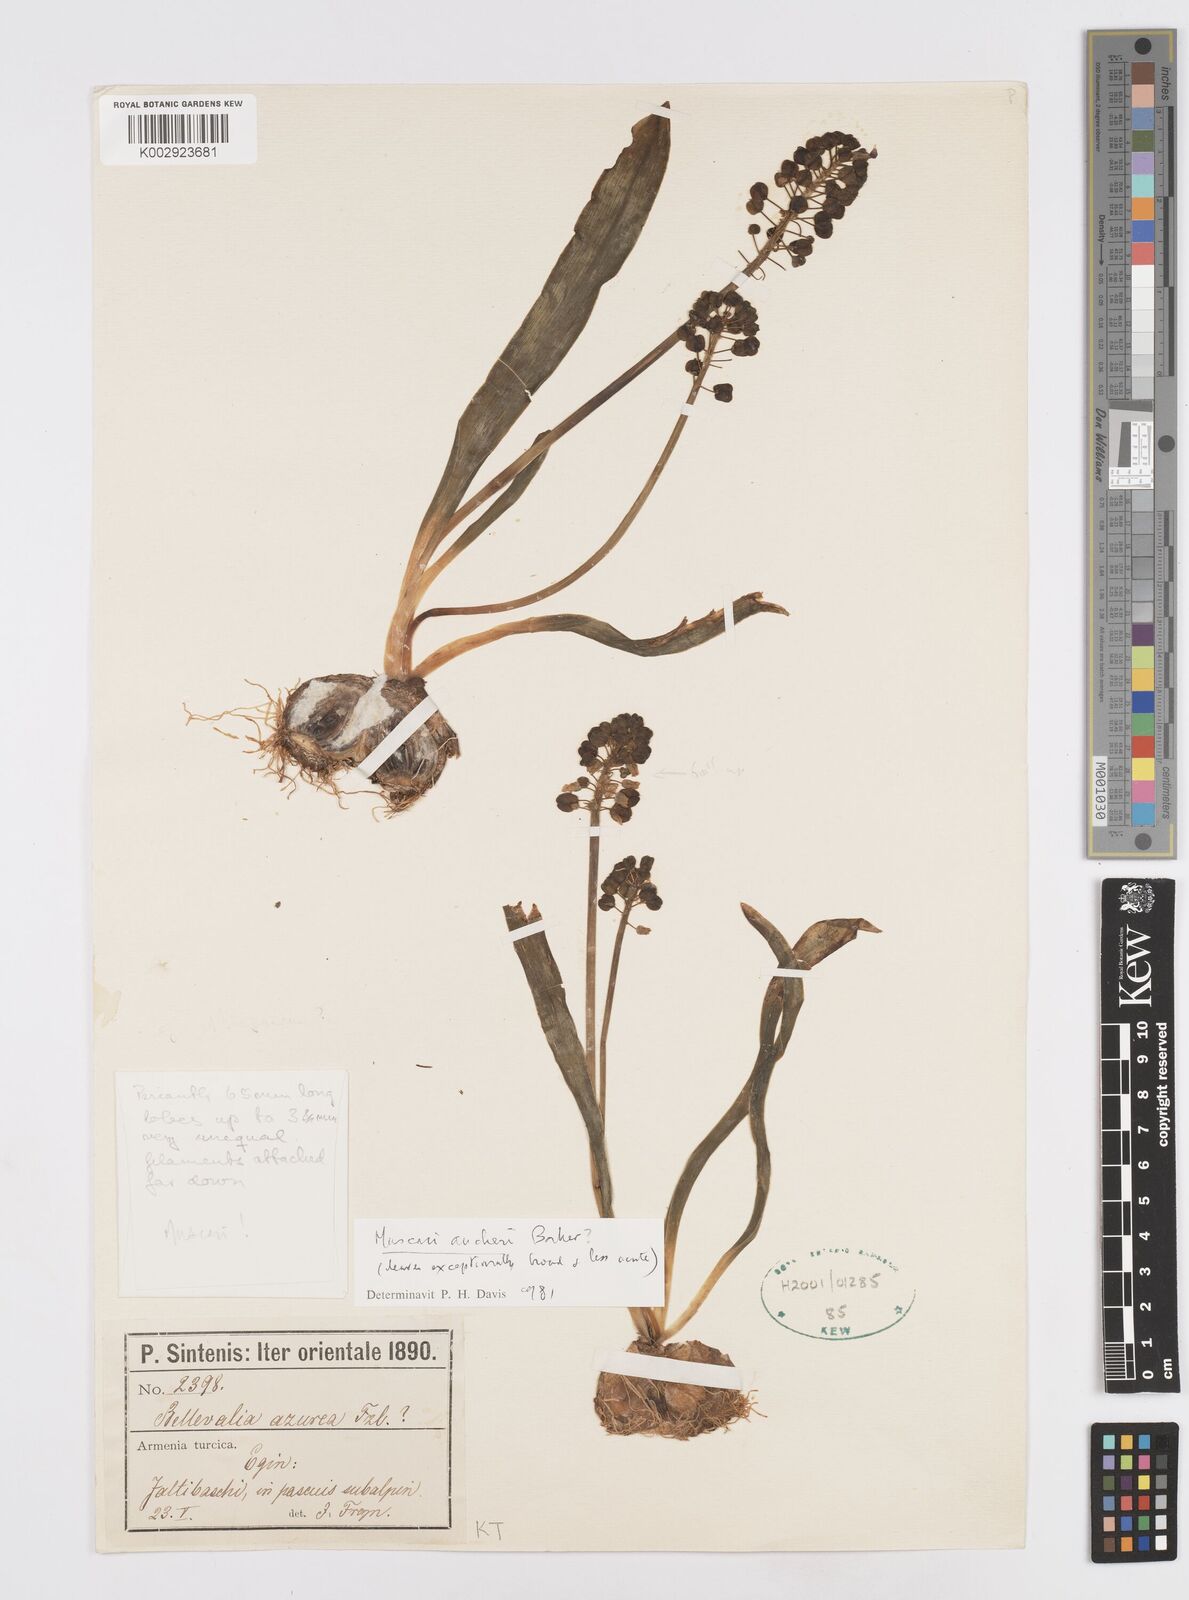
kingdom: Plantae
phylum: Tracheophyta
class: Liliopsida
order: Asparagales
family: Asparagaceae
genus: Muscari
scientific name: Muscari aucheri
